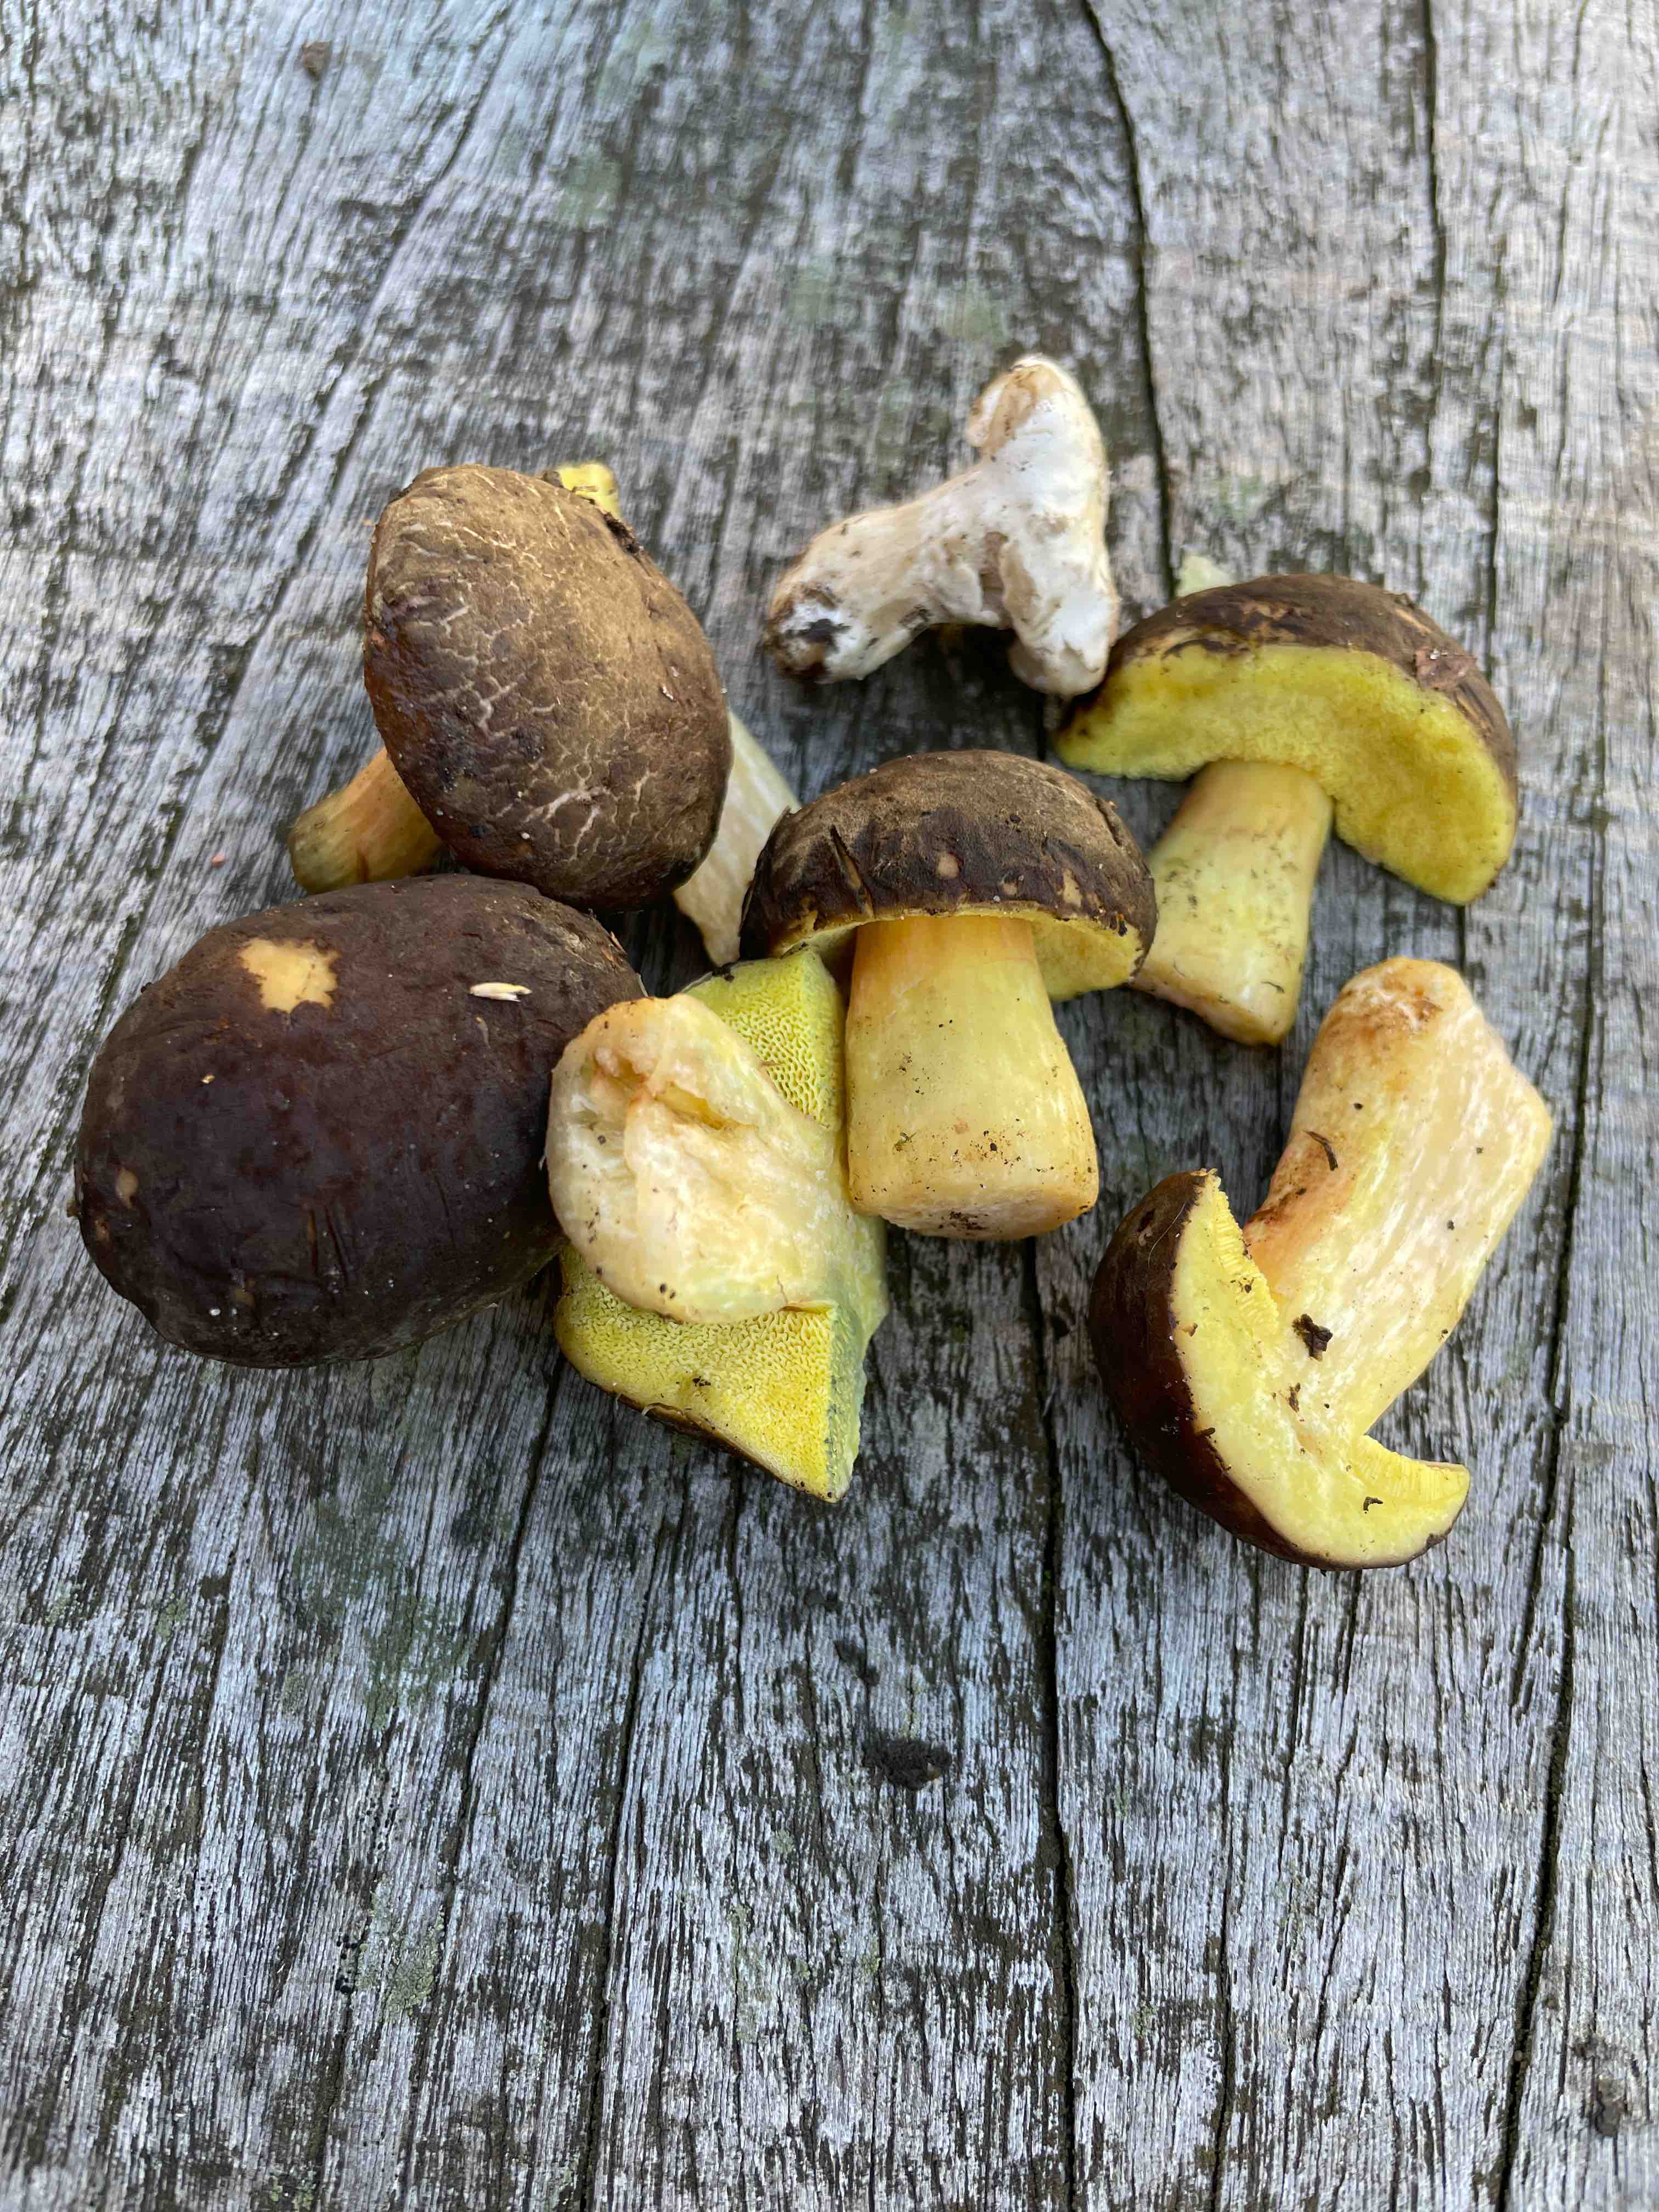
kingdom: Fungi
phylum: Basidiomycota
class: Agaricomycetes
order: Boletales
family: Boletaceae
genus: Xerocomellus
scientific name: Xerocomellus
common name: dværgrørhat
